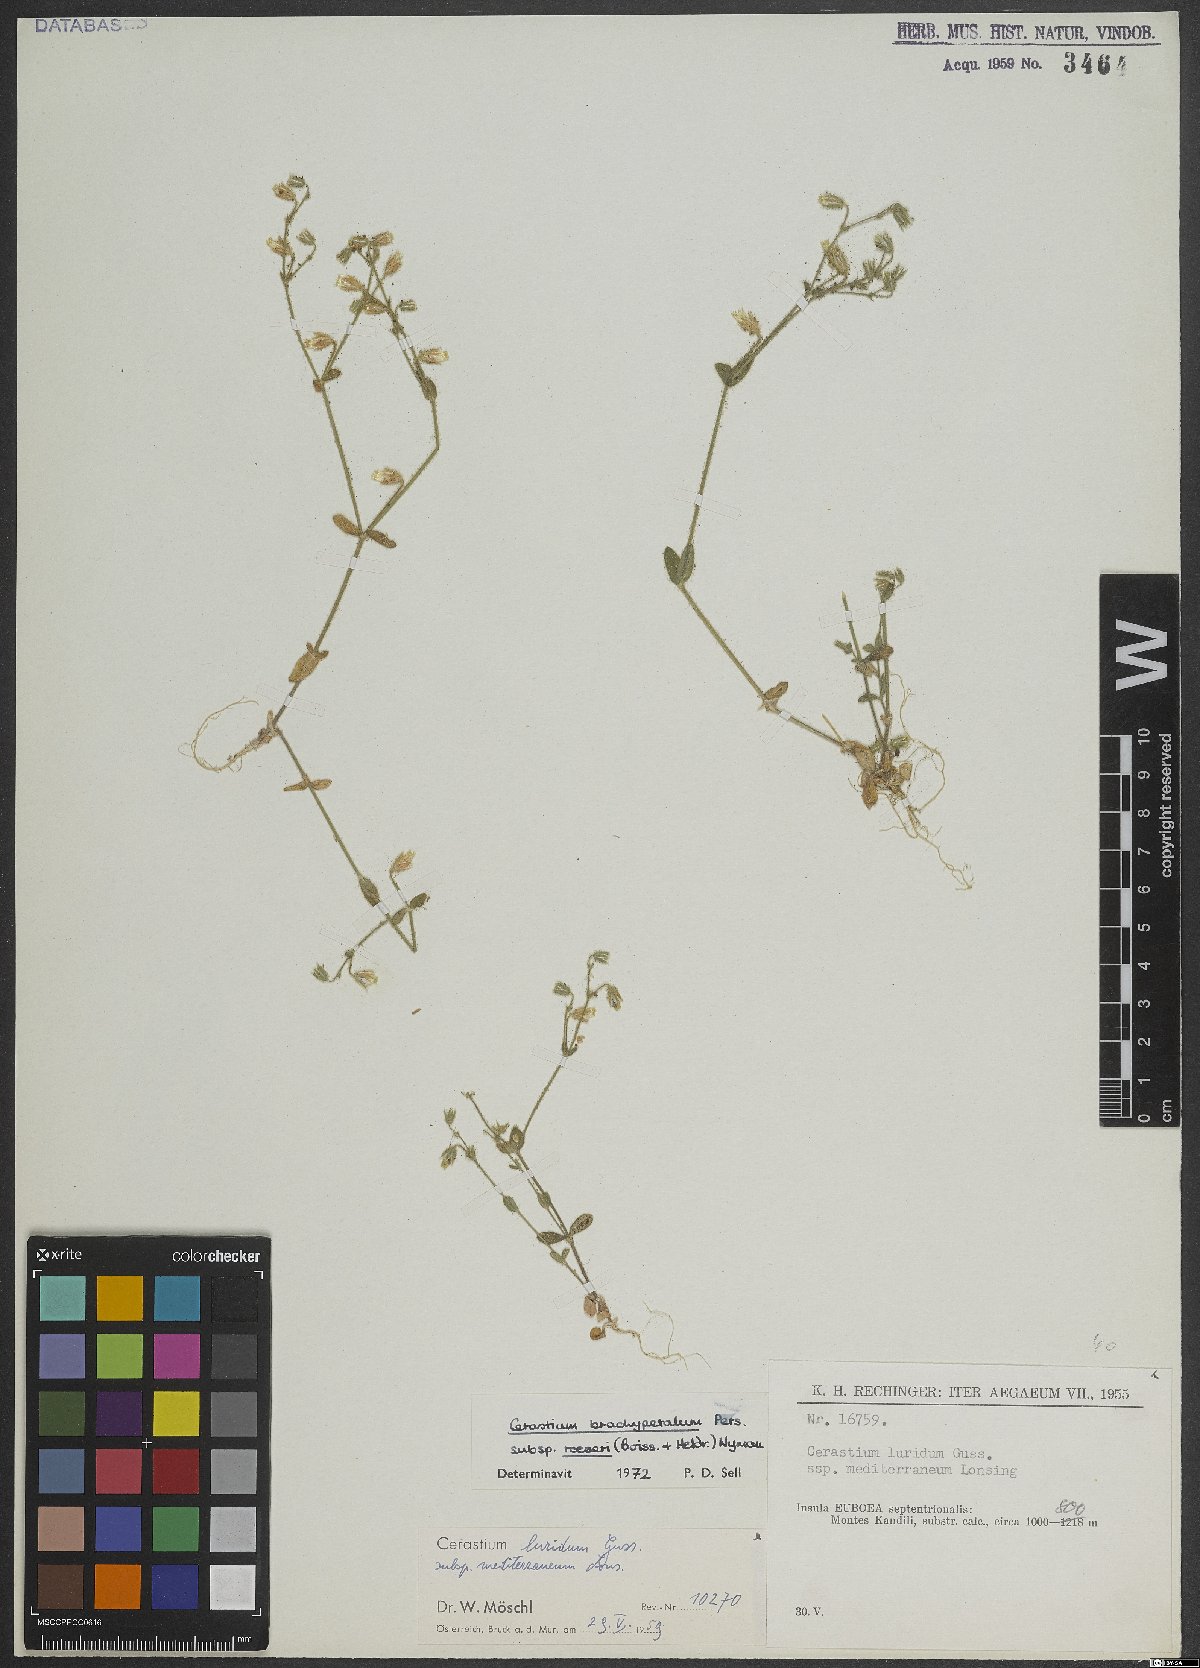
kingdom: Plantae
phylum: Tracheophyta
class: Magnoliopsida
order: Caryophyllales
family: Caryophyllaceae
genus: Cerastium
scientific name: Cerastium brachypetalum
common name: Grey mouse-ear
